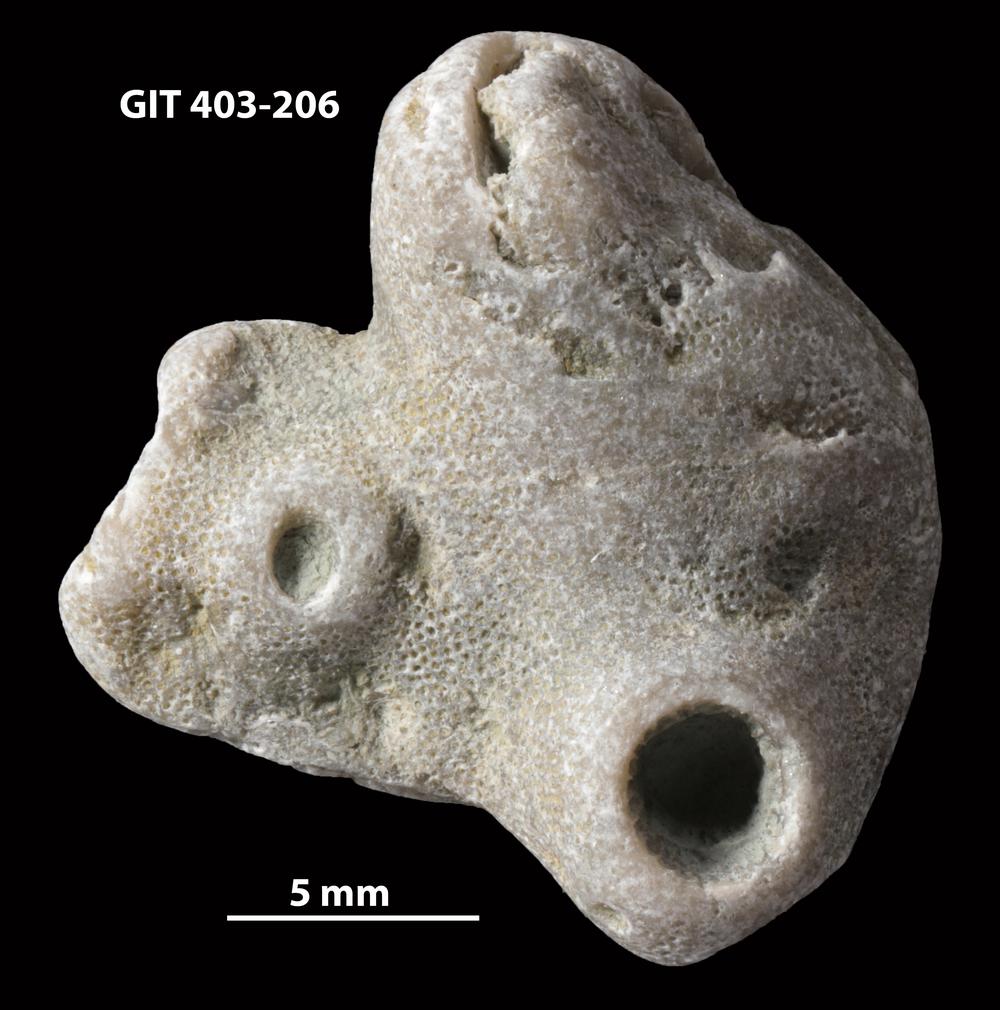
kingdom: Animalia
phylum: Bryozoa
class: Stenolaemata
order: Cystoporida
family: Fistuliporidae
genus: Fistulipora
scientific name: Fistulipora przhidolensis
